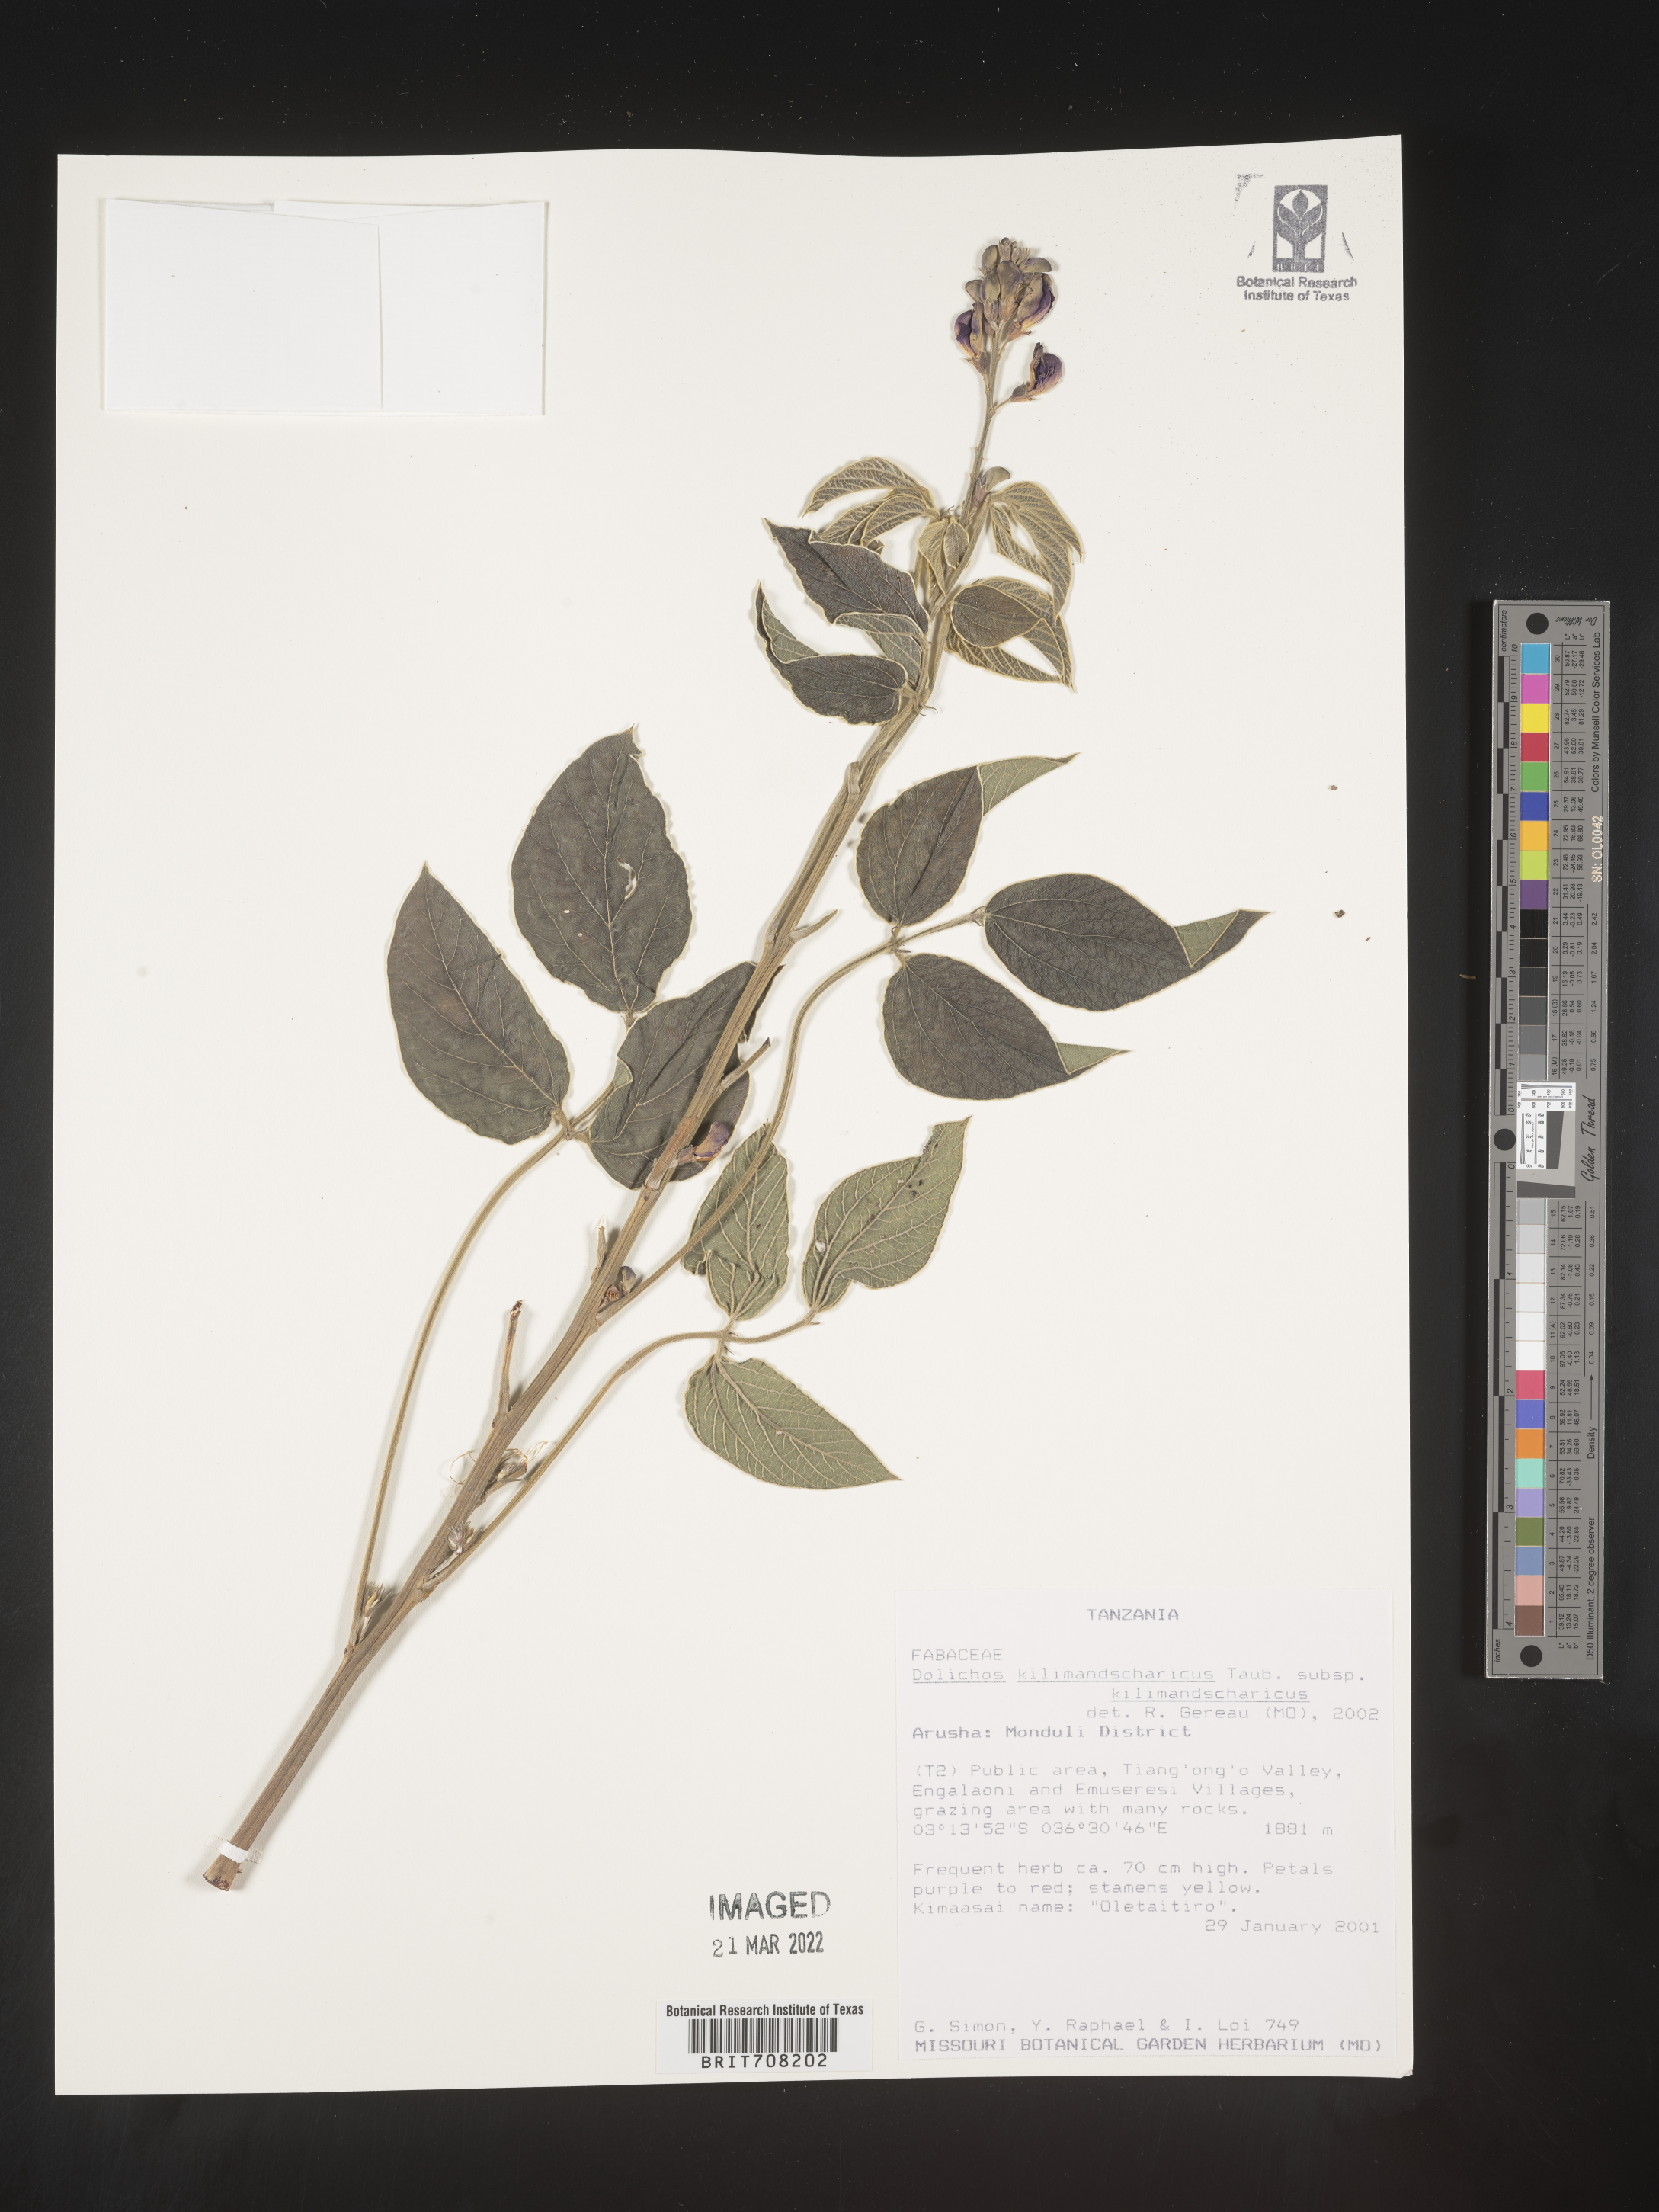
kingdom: Plantae
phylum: Tracheophyta
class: Magnoliopsida
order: Fabales
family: Fabaceae
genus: Dolichos
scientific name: Dolichos
